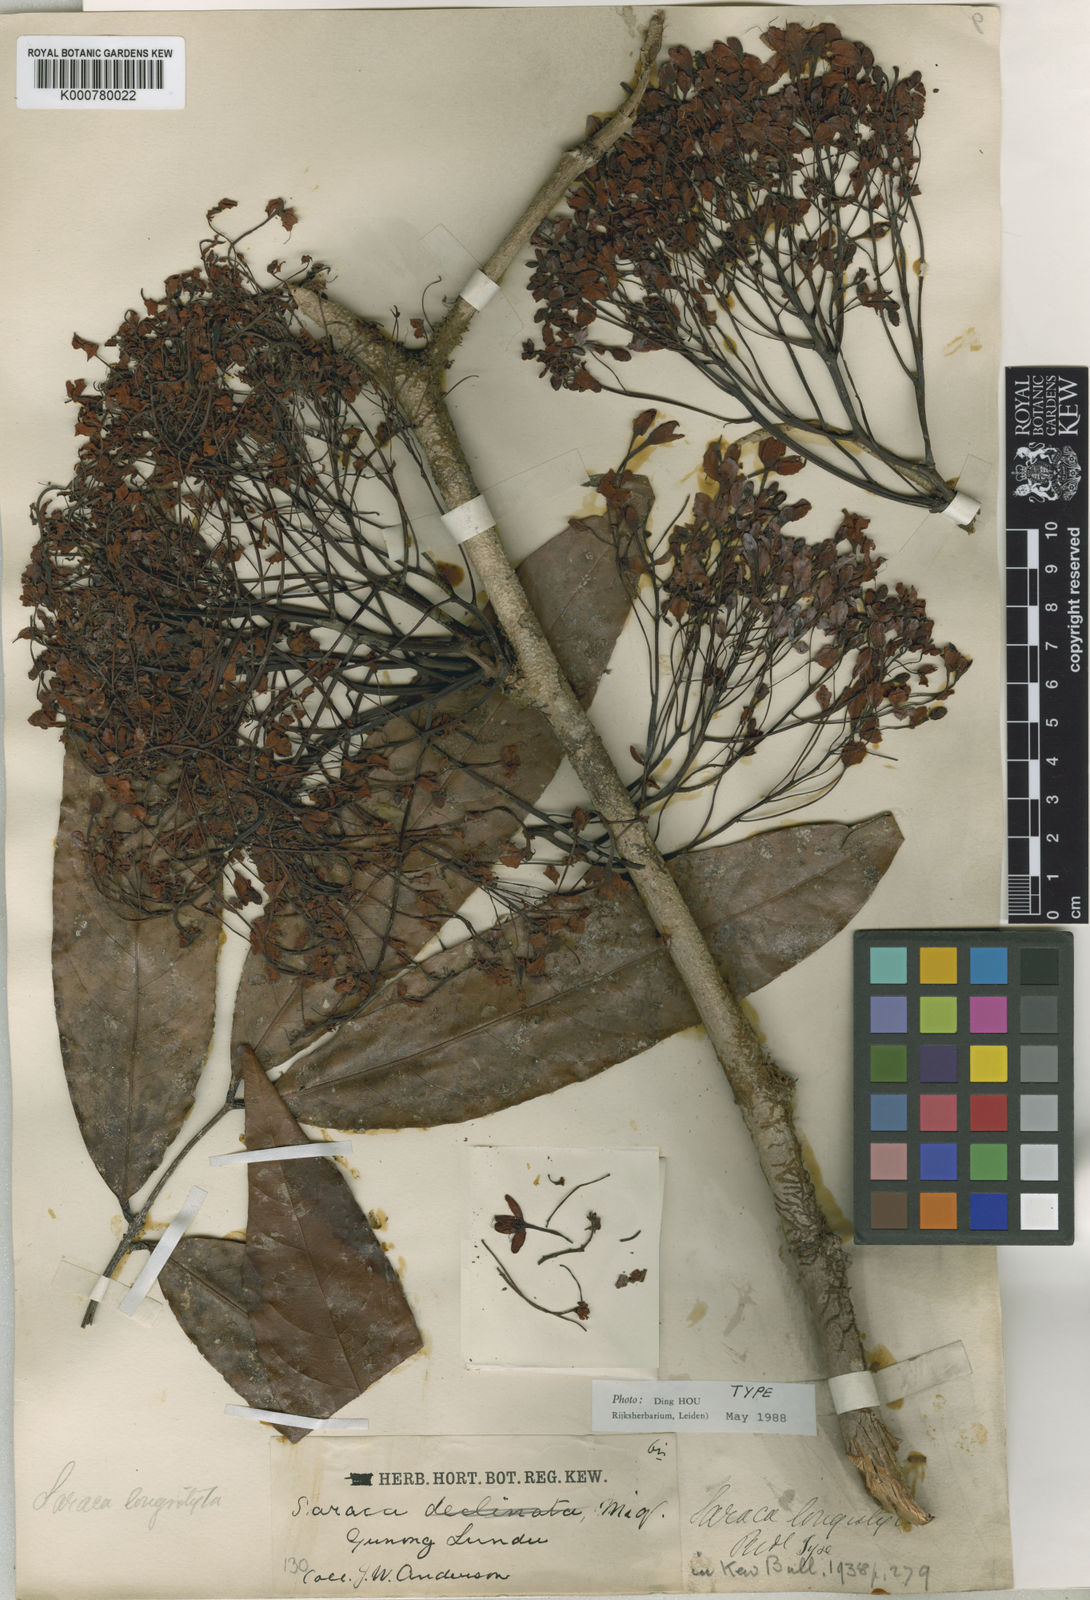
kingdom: Plantae
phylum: Tracheophyta
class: Magnoliopsida
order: Fabales
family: Fabaceae
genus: Saraca
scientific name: Saraca declinata
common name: Red saraca
